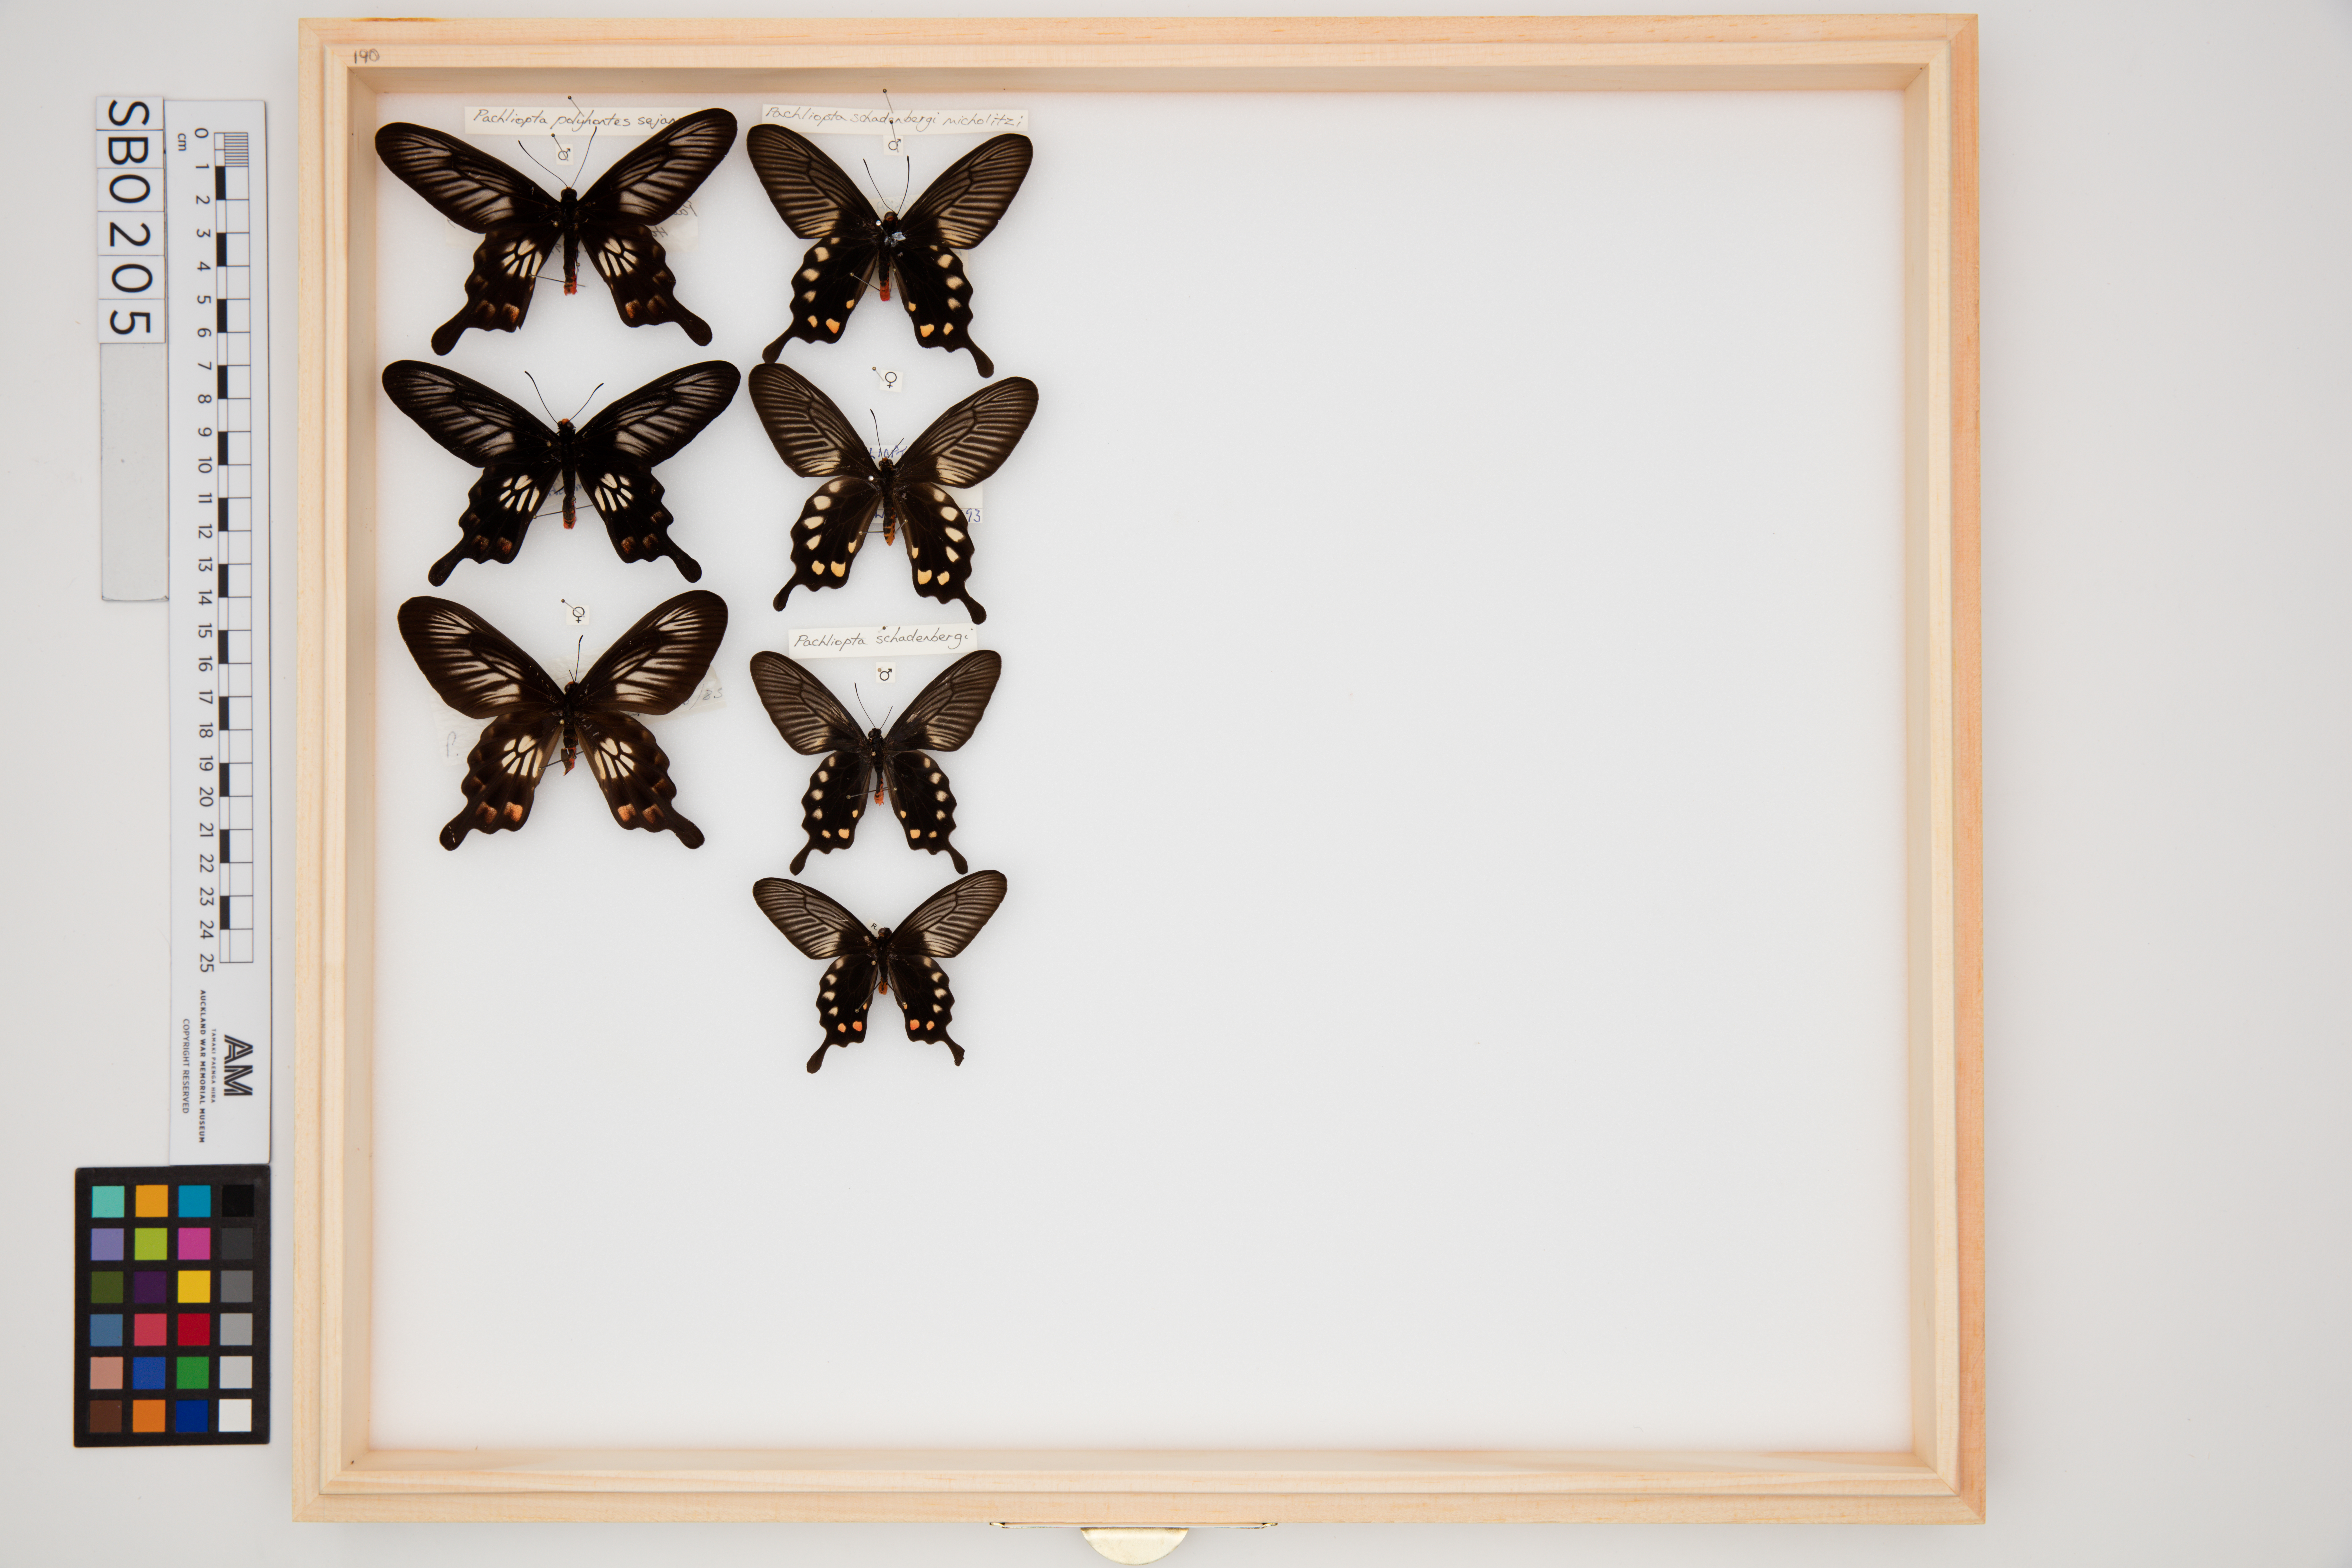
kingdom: Animalia
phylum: Arthropoda
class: Insecta
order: Lepidoptera
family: Papilionidae
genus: Pachliopta
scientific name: Pachliopta schadenbergi
